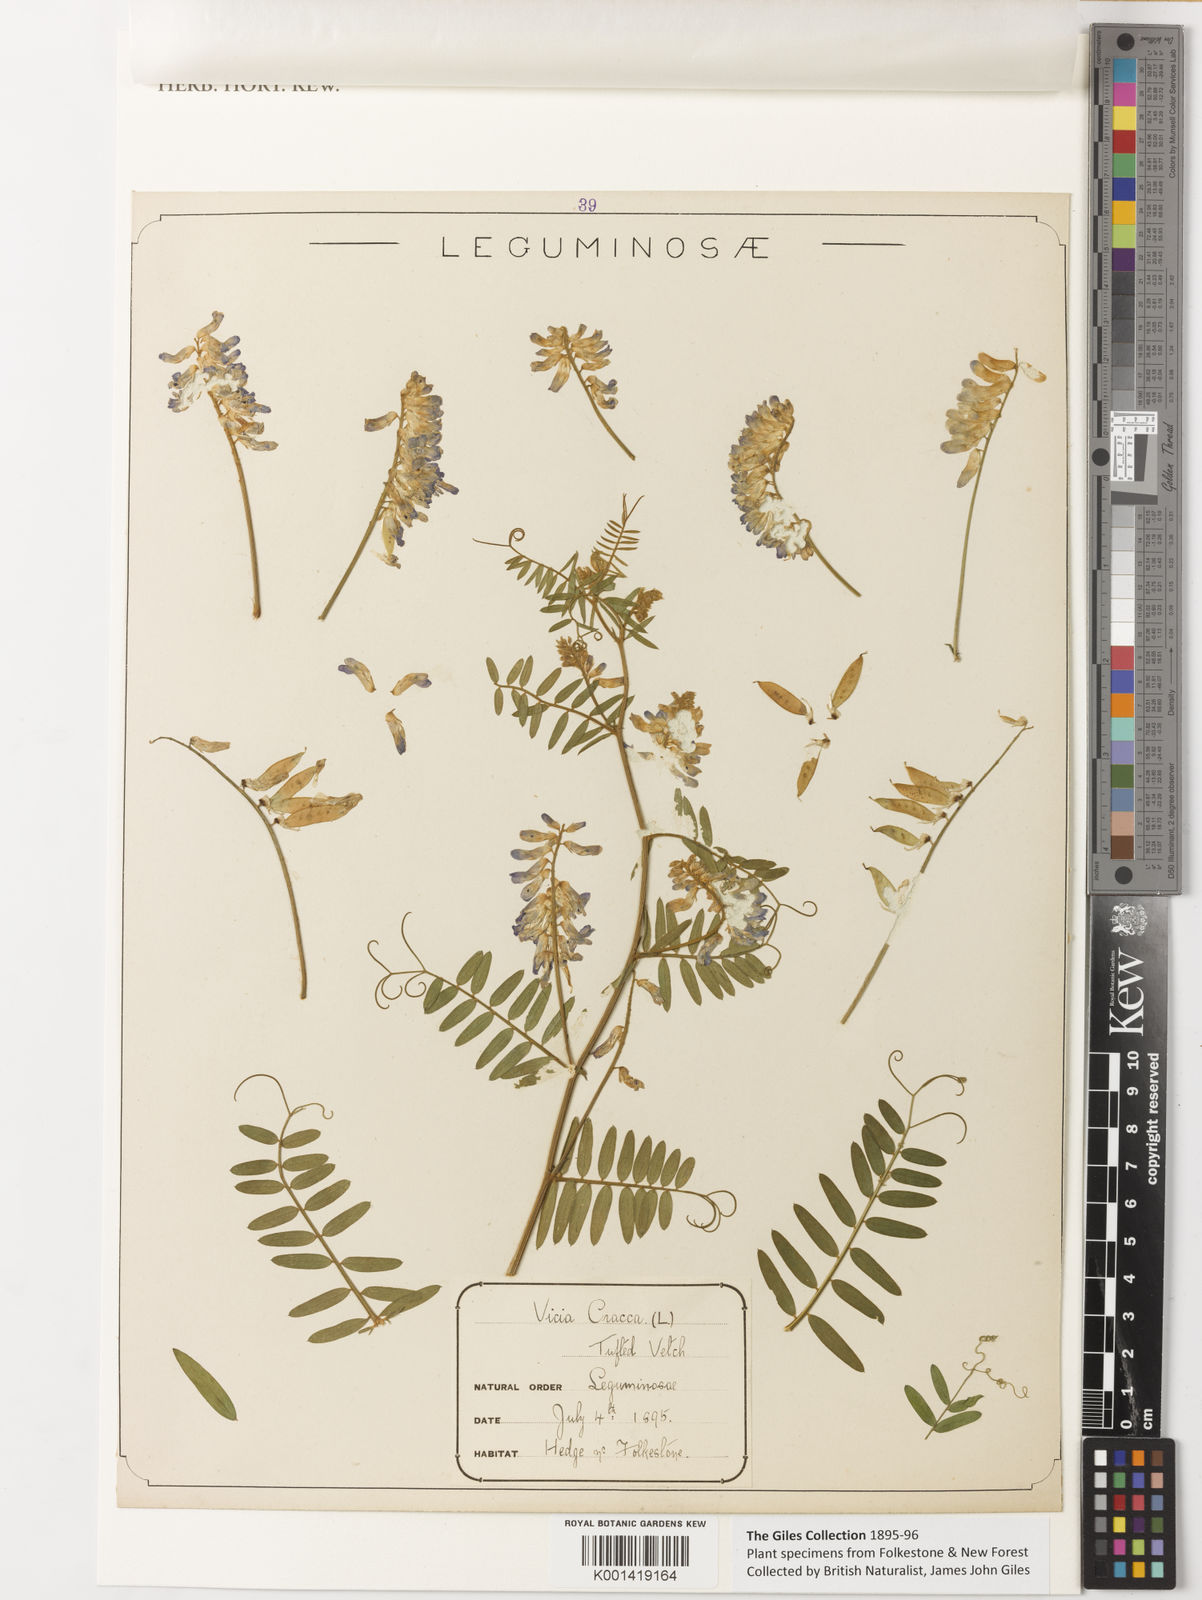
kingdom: Plantae
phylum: Tracheophyta
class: Magnoliopsida
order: Fabales
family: Fabaceae
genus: Vicia
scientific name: Vicia cracca
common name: Bird vetch
